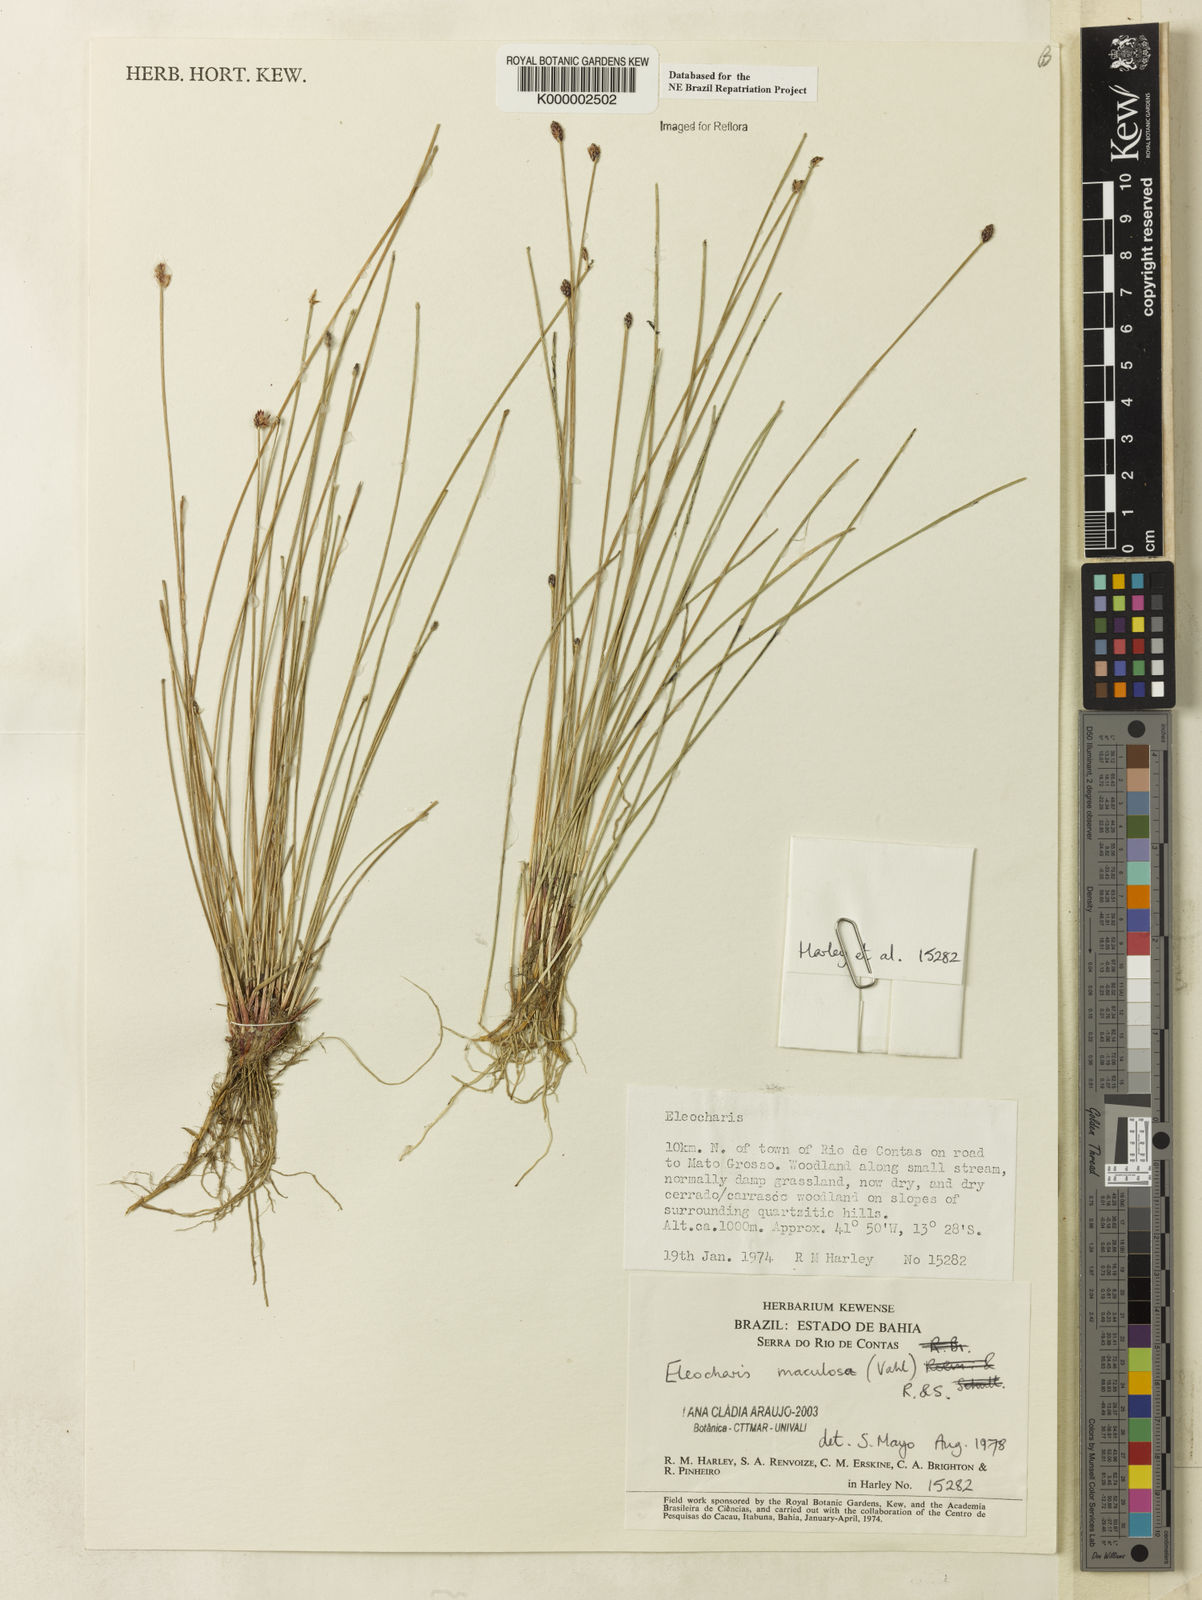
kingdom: Plantae
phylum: Tracheophyta
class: Liliopsida
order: Poales
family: Cyperaceae
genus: Eleocharis
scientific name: Eleocharis maculosa
